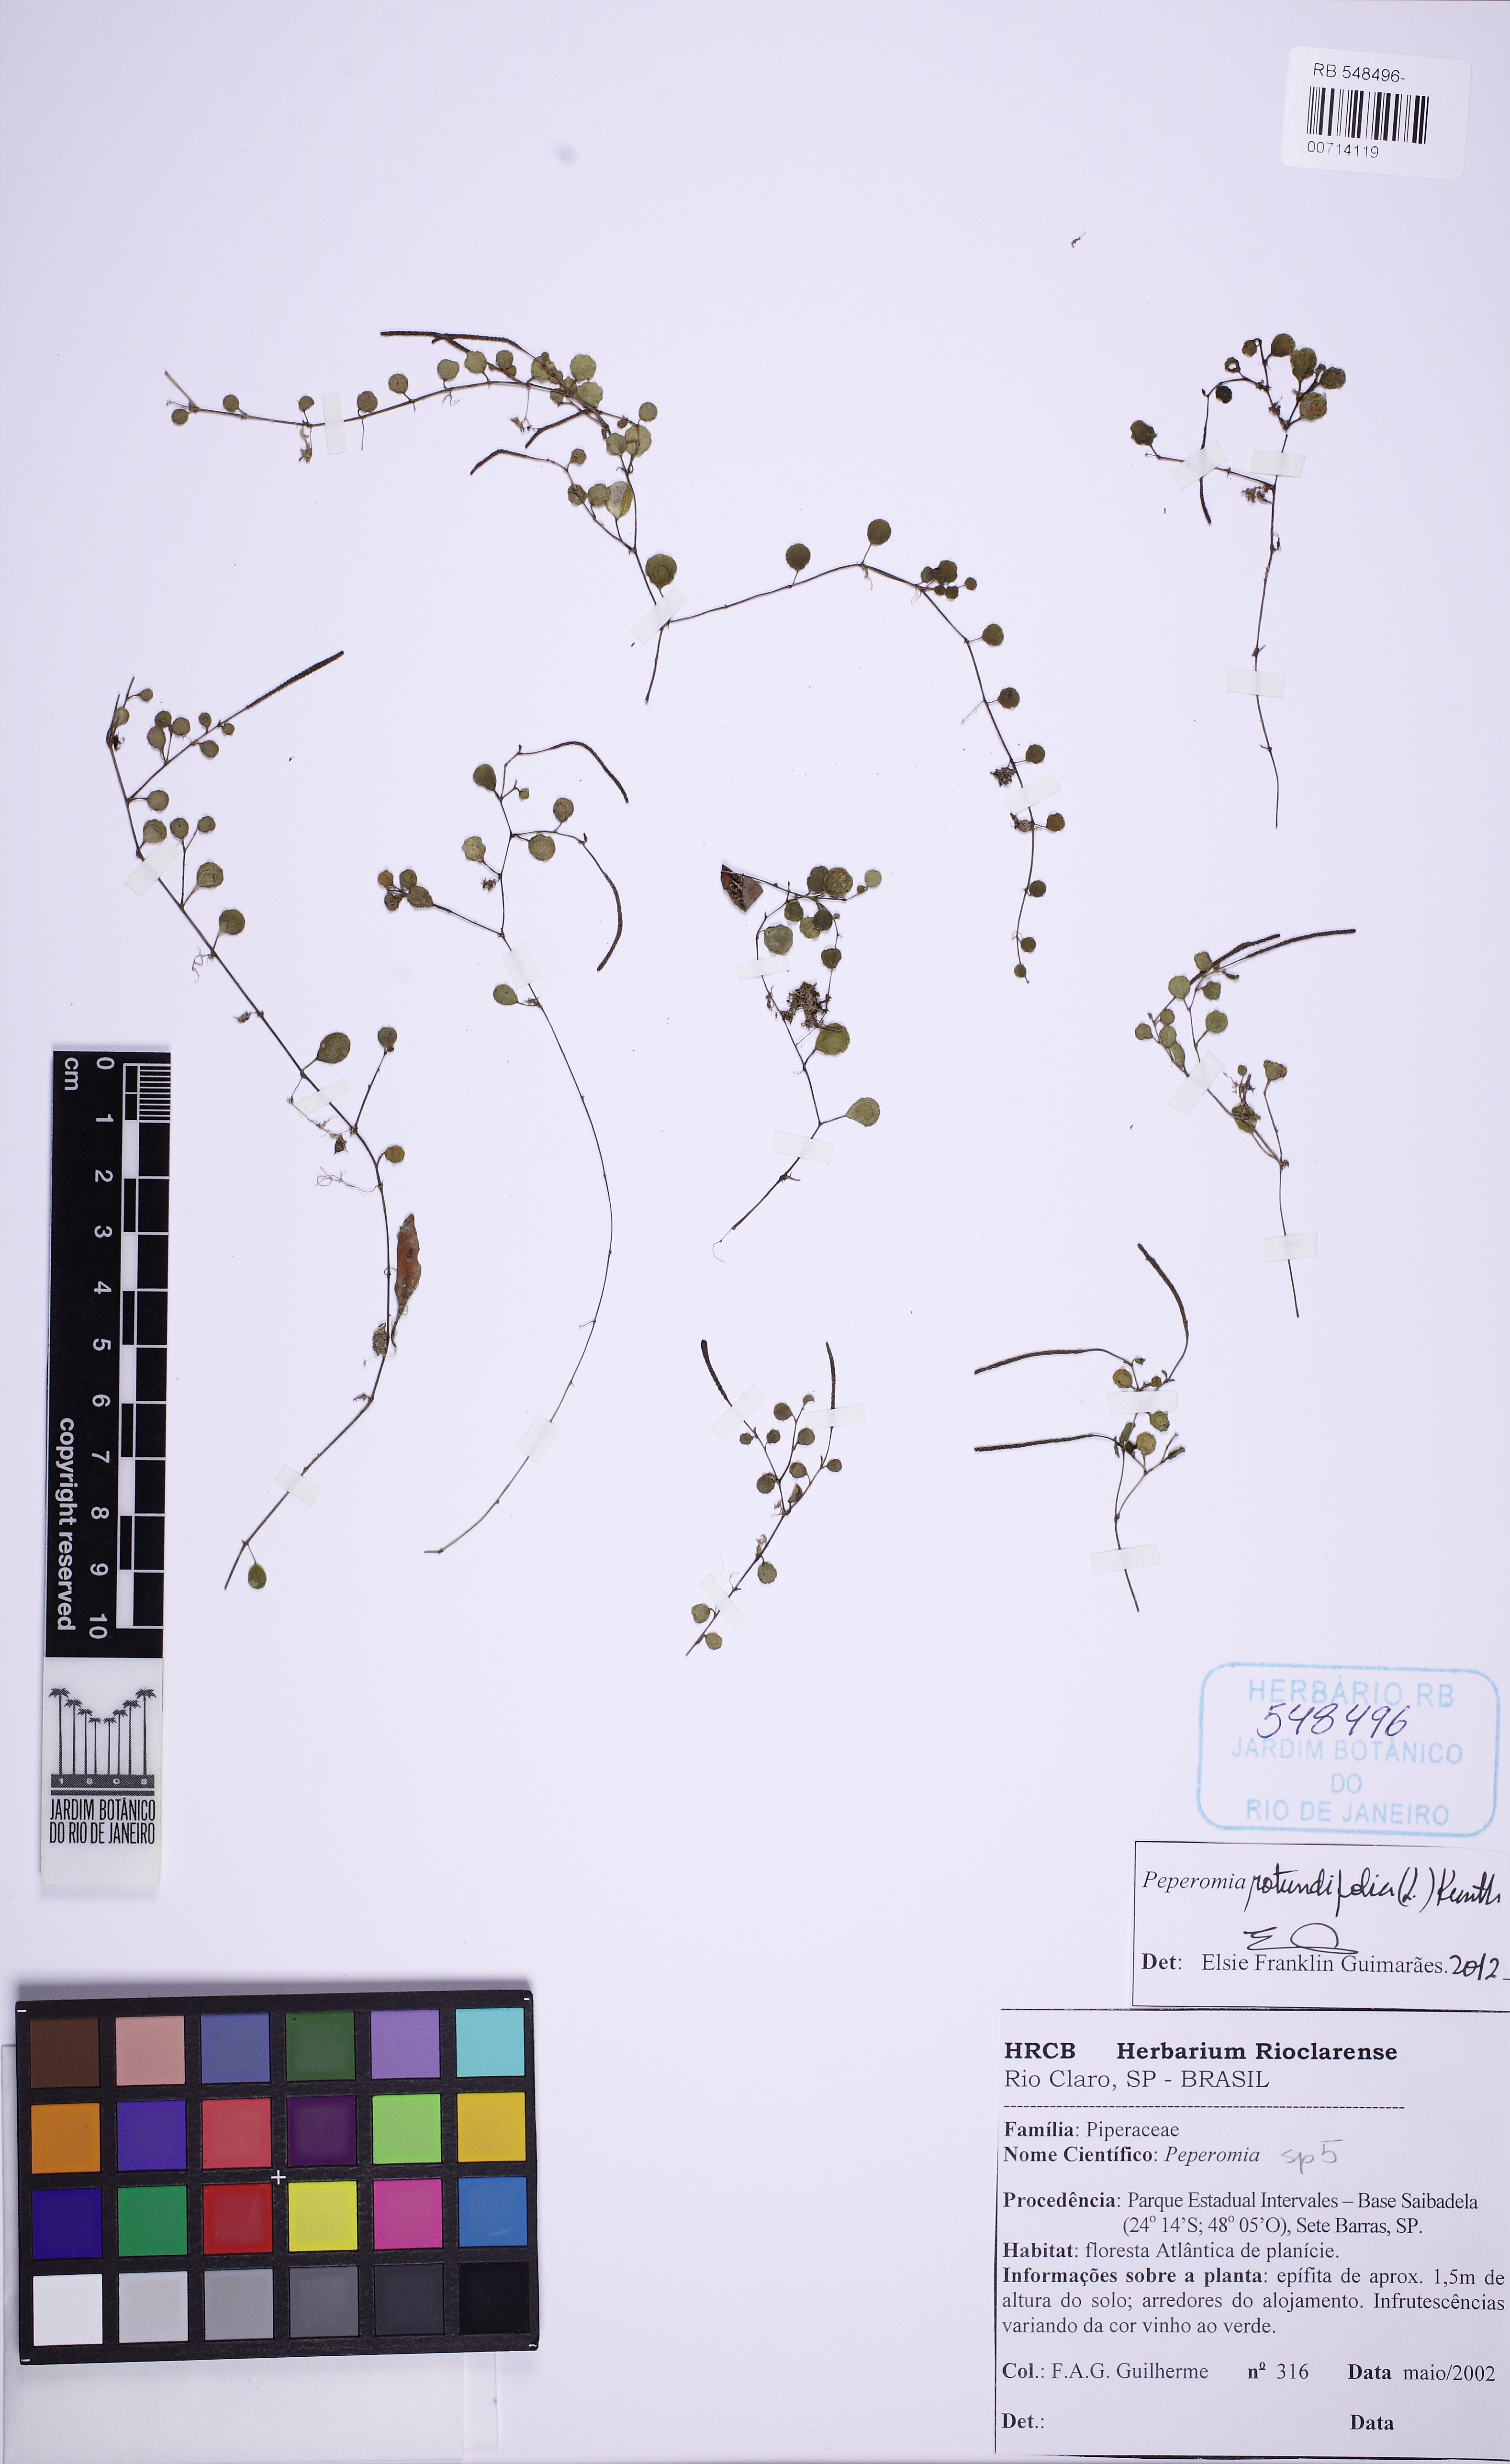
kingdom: Plantae
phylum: Tracheophyta
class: Magnoliopsida
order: Piperales
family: Piperaceae
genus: Peperomia
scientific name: Peperomia rotundifolia
